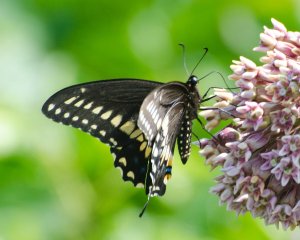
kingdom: Animalia
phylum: Arthropoda
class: Insecta
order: Lepidoptera
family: Papilionidae
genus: Papilio
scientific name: Papilio polyxenes
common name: Black Swallowtail
